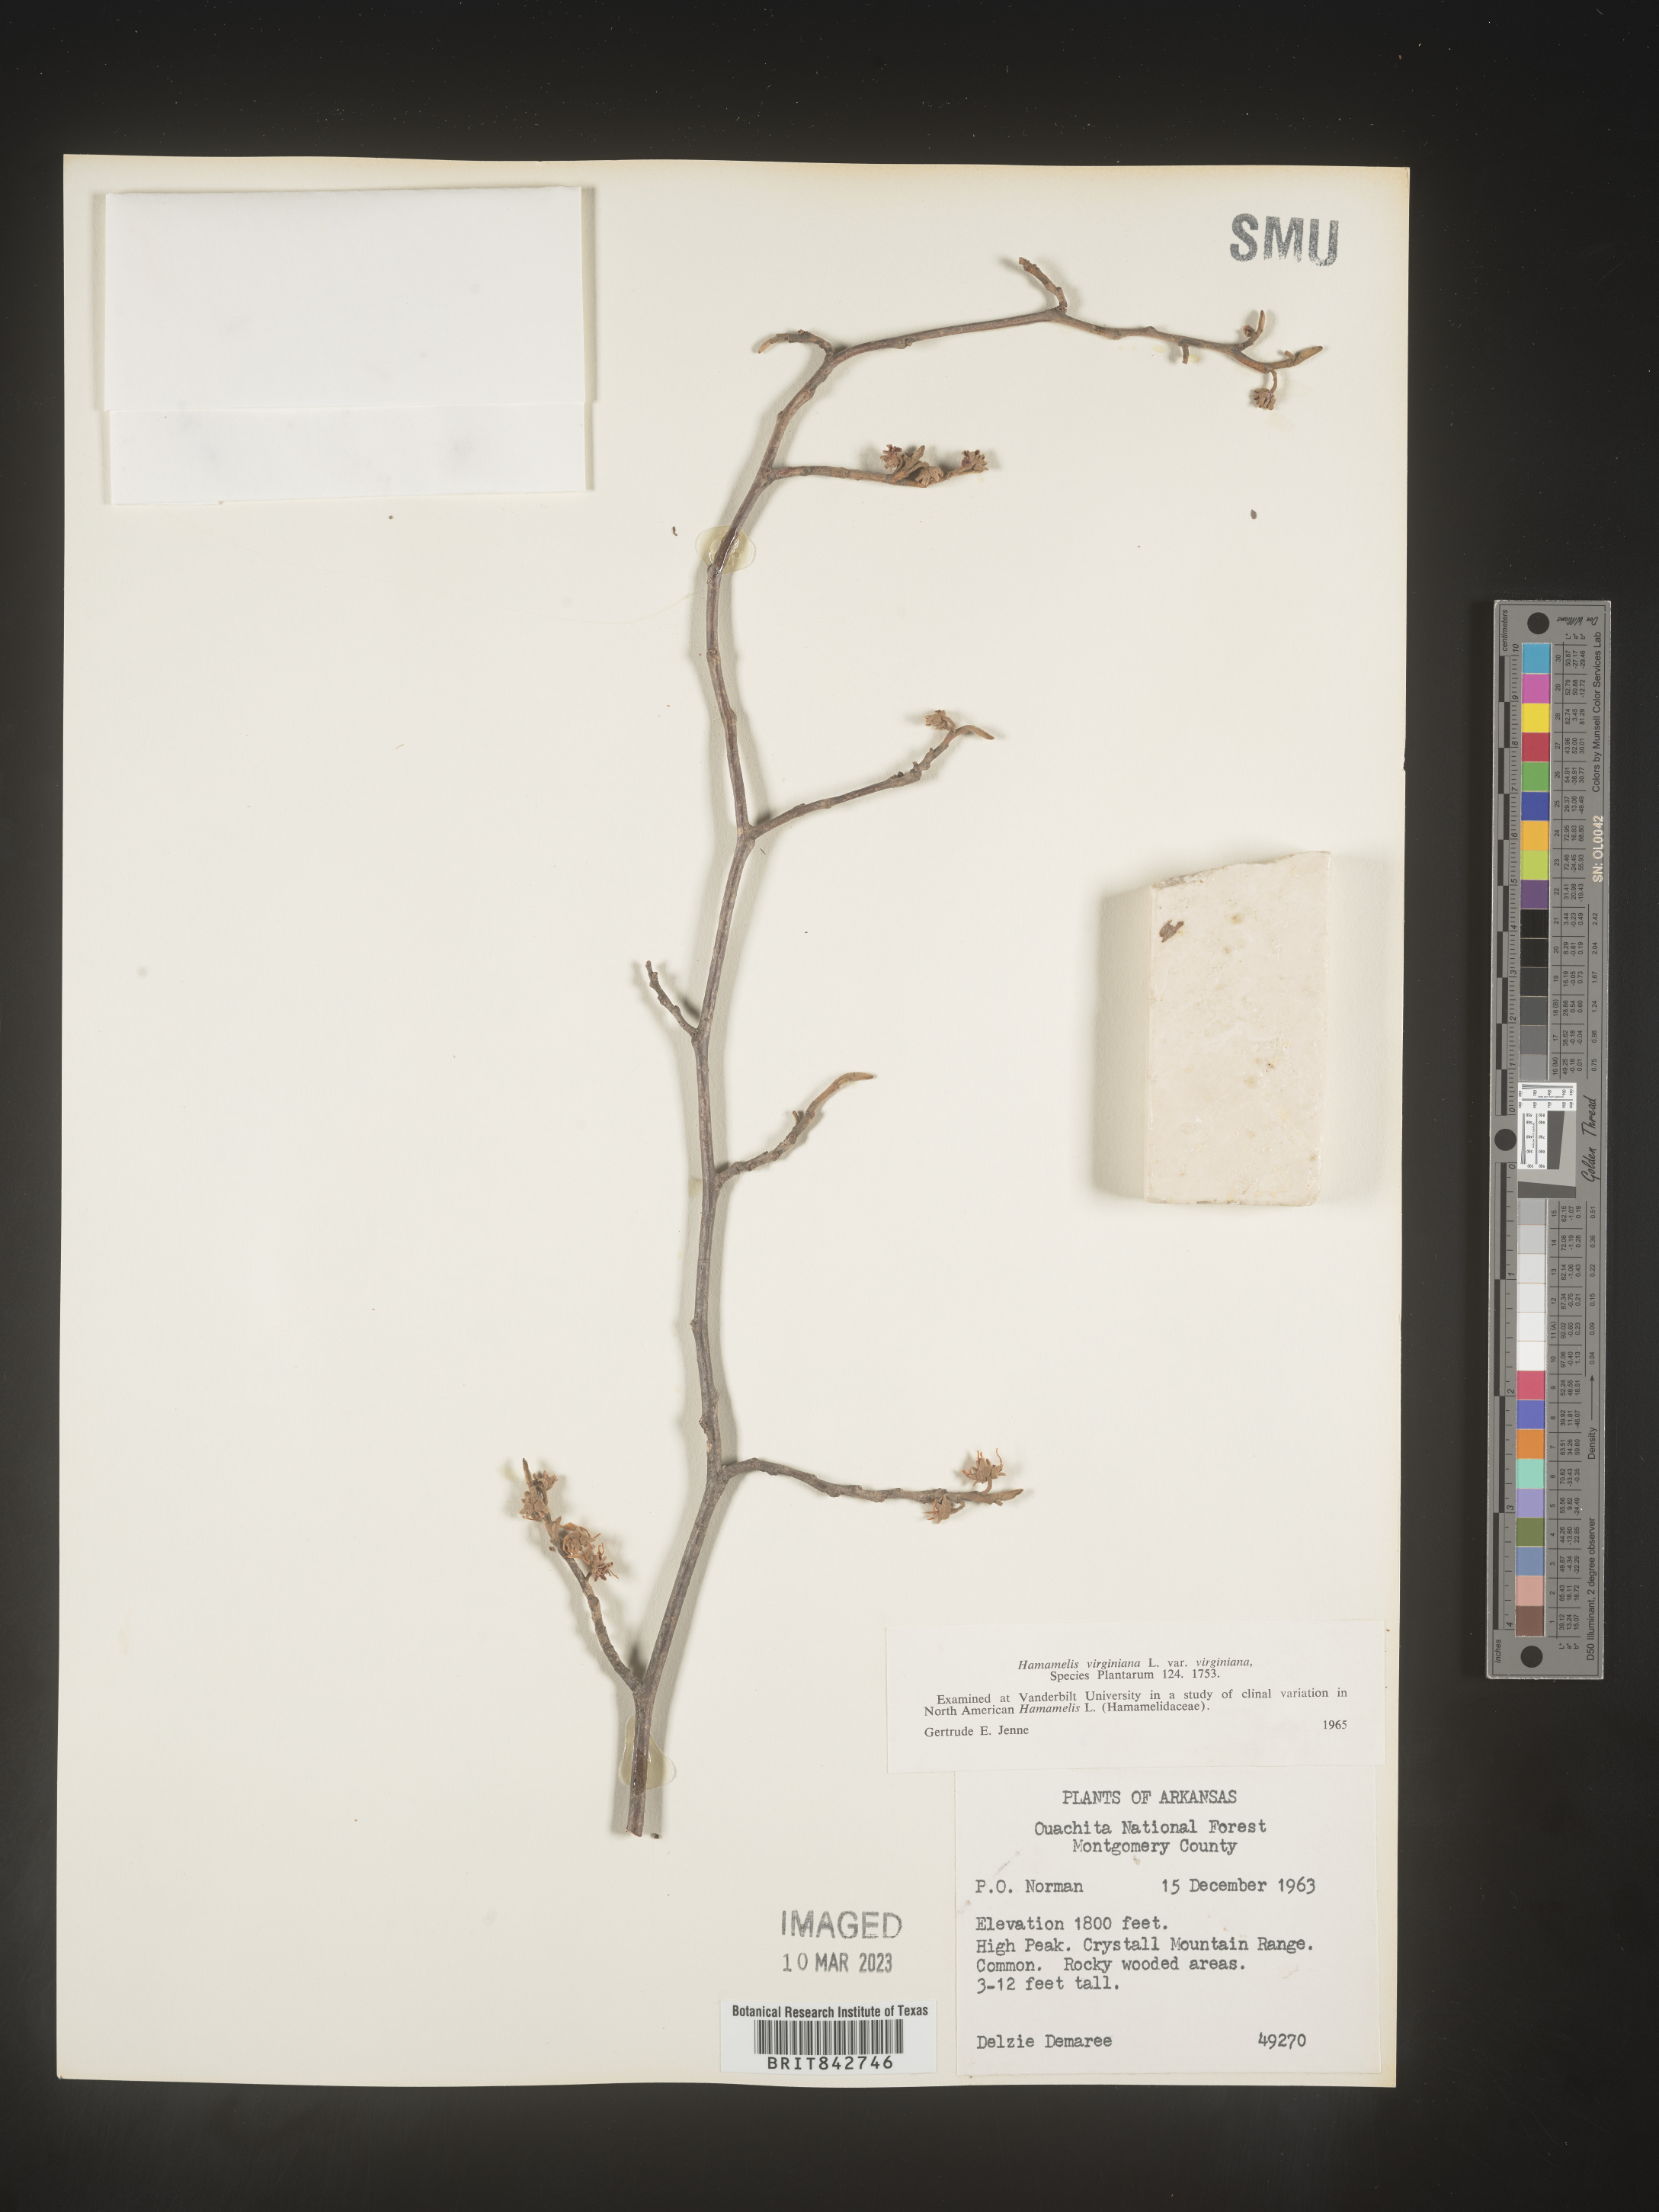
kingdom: Plantae
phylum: Tracheophyta
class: Magnoliopsida
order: Saxifragales
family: Hamamelidaceae
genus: Hamamelis
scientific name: Hamamelis virginiana
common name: Witch-hazel
